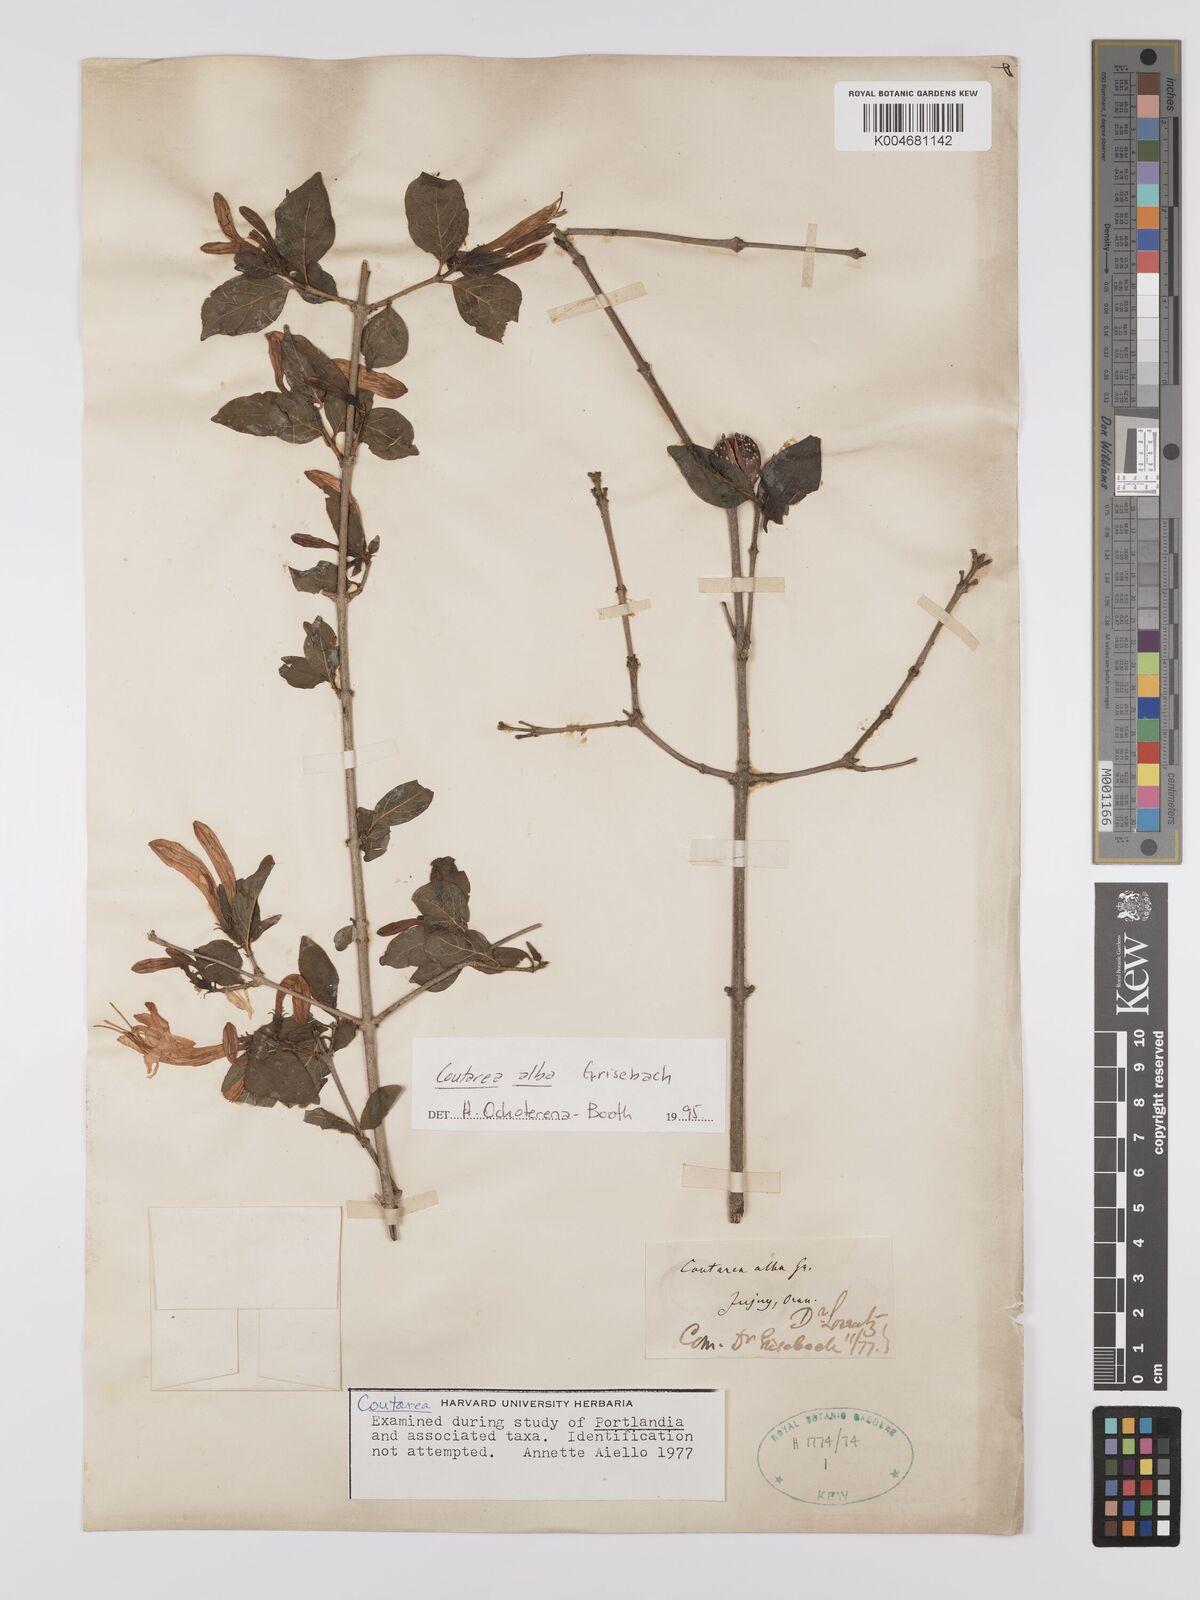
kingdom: Plantae
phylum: Tracheophyta
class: Magnoliopsida
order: Gentianales
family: Rubiaceae
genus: Coutarea
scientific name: Coutarea alba
